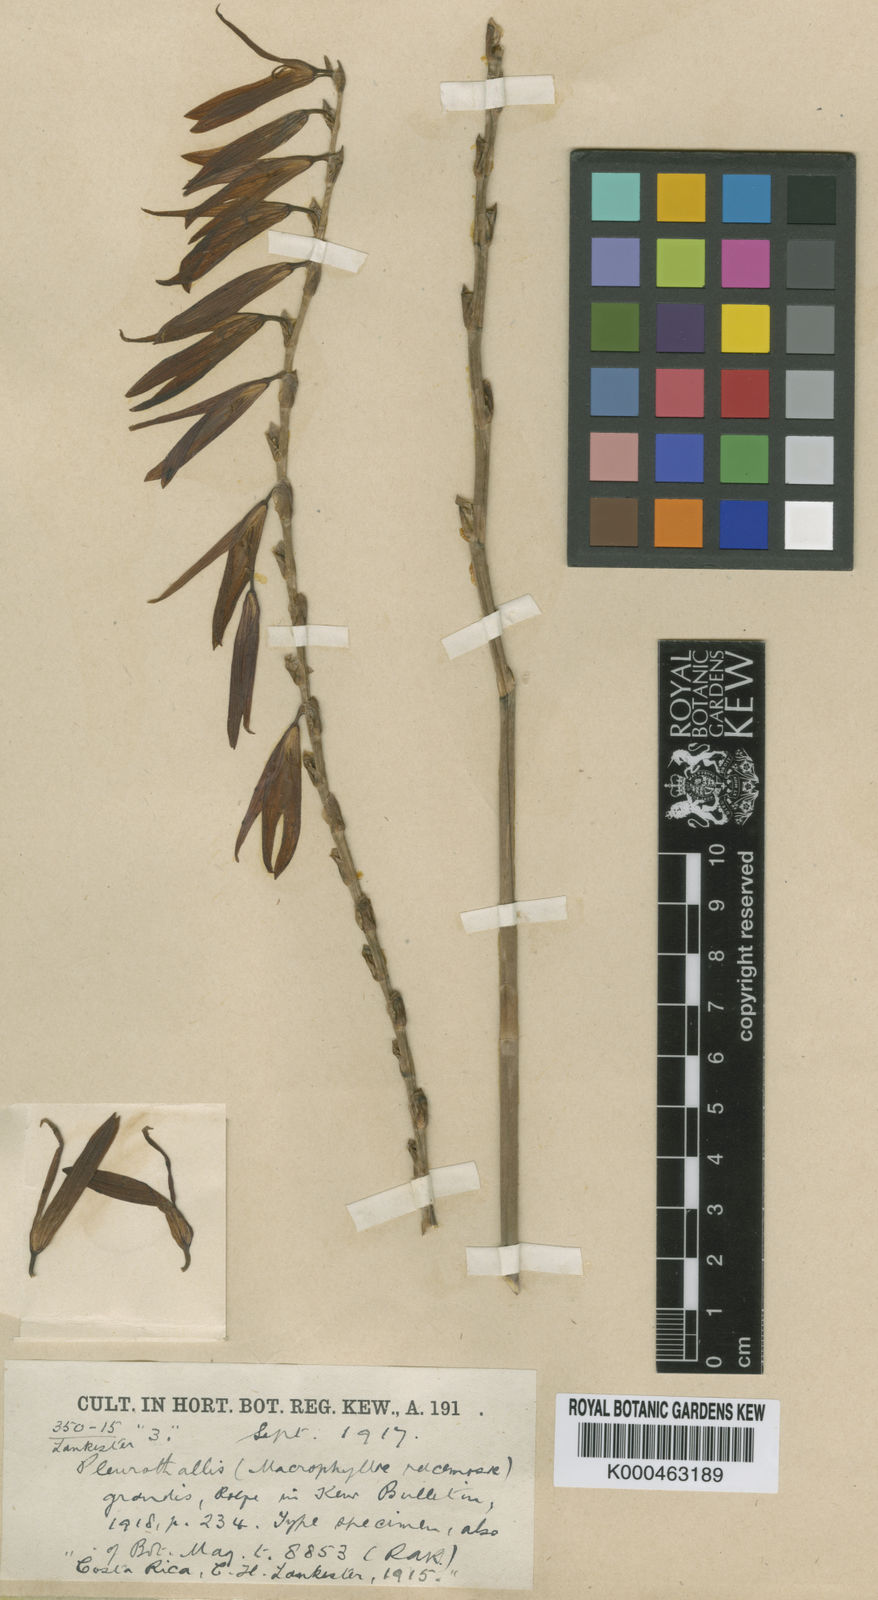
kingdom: Plantae
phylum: Tracheophyta
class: Liliopsida
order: Asparagales
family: Orchidaceae
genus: Stelis
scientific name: Stelis alta
